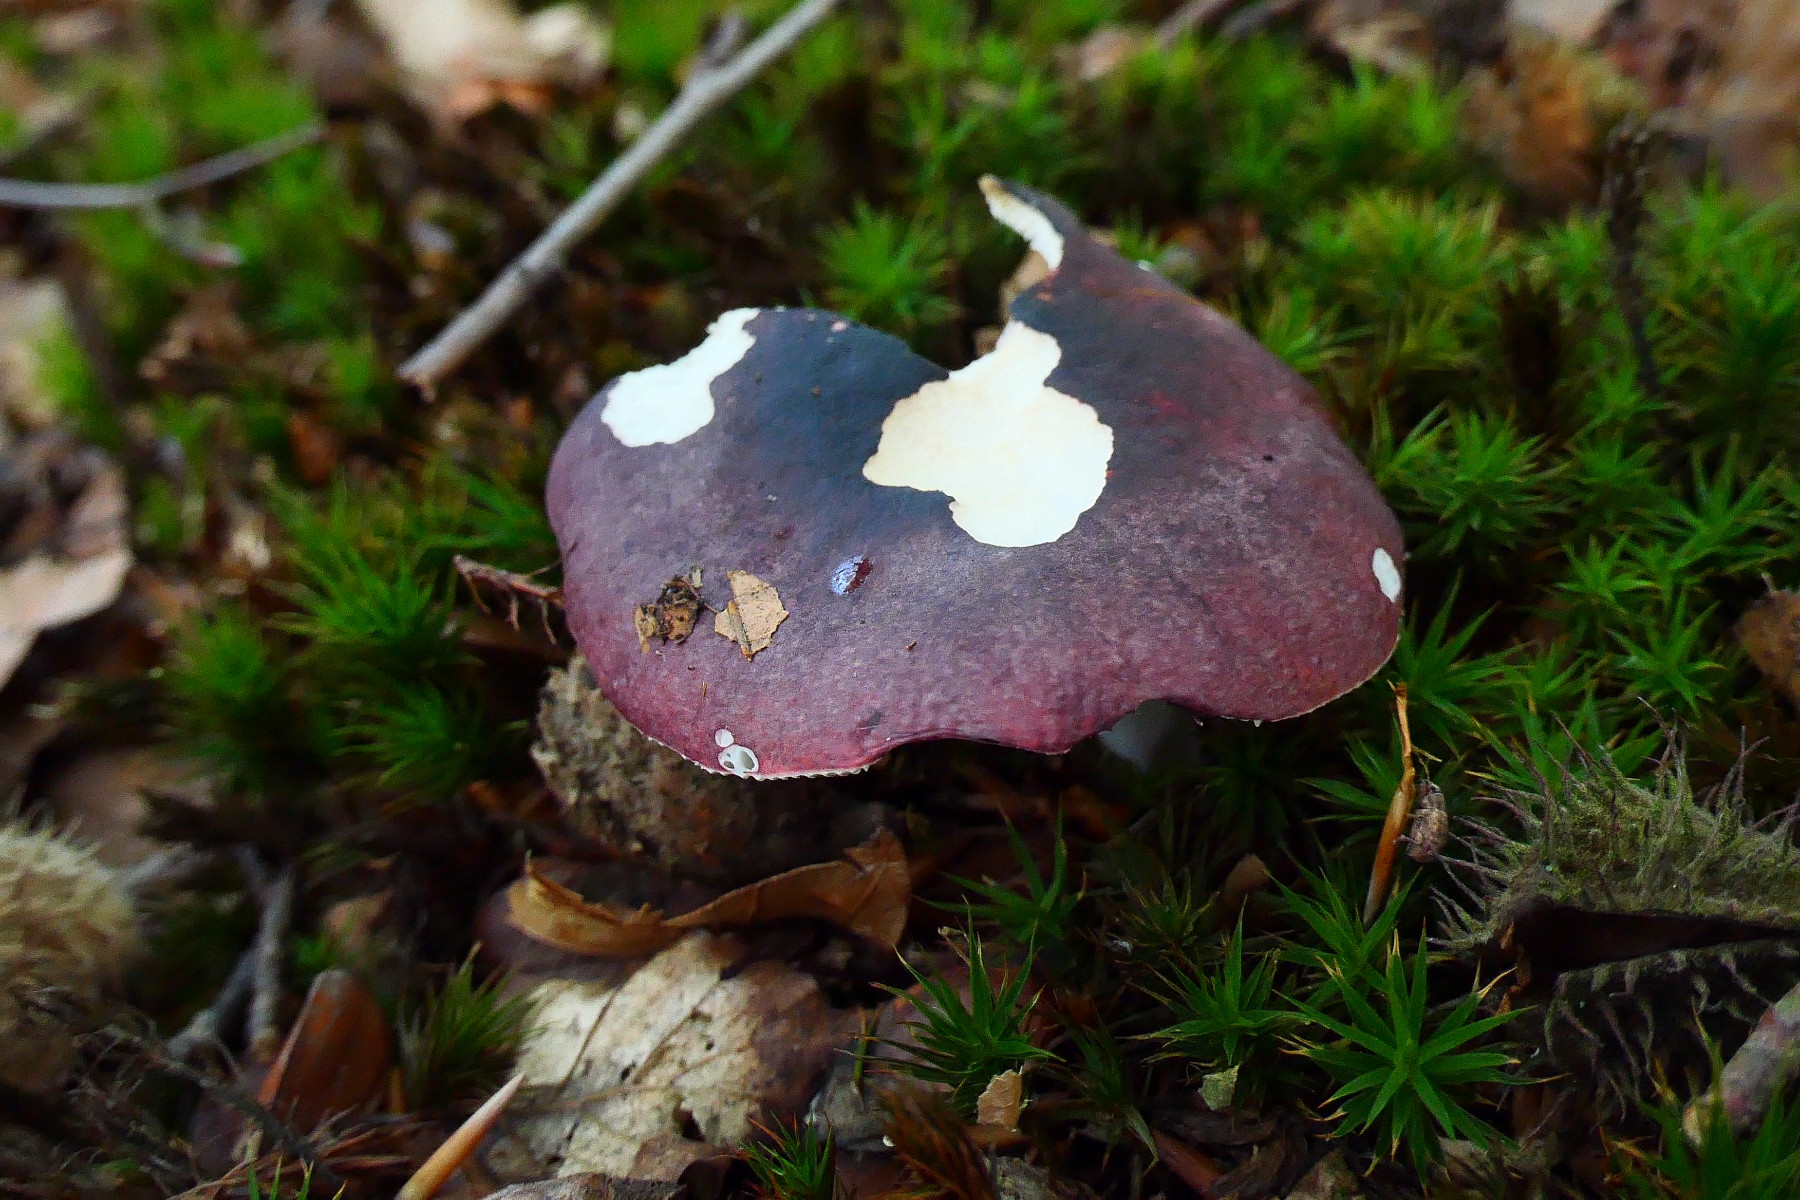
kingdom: Fungi
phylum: Basidiomycota
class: Agaricomycetes
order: Russulales
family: Russulaceae
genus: Russula
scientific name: Russula atropurpurea
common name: purpurbroget skørhat
